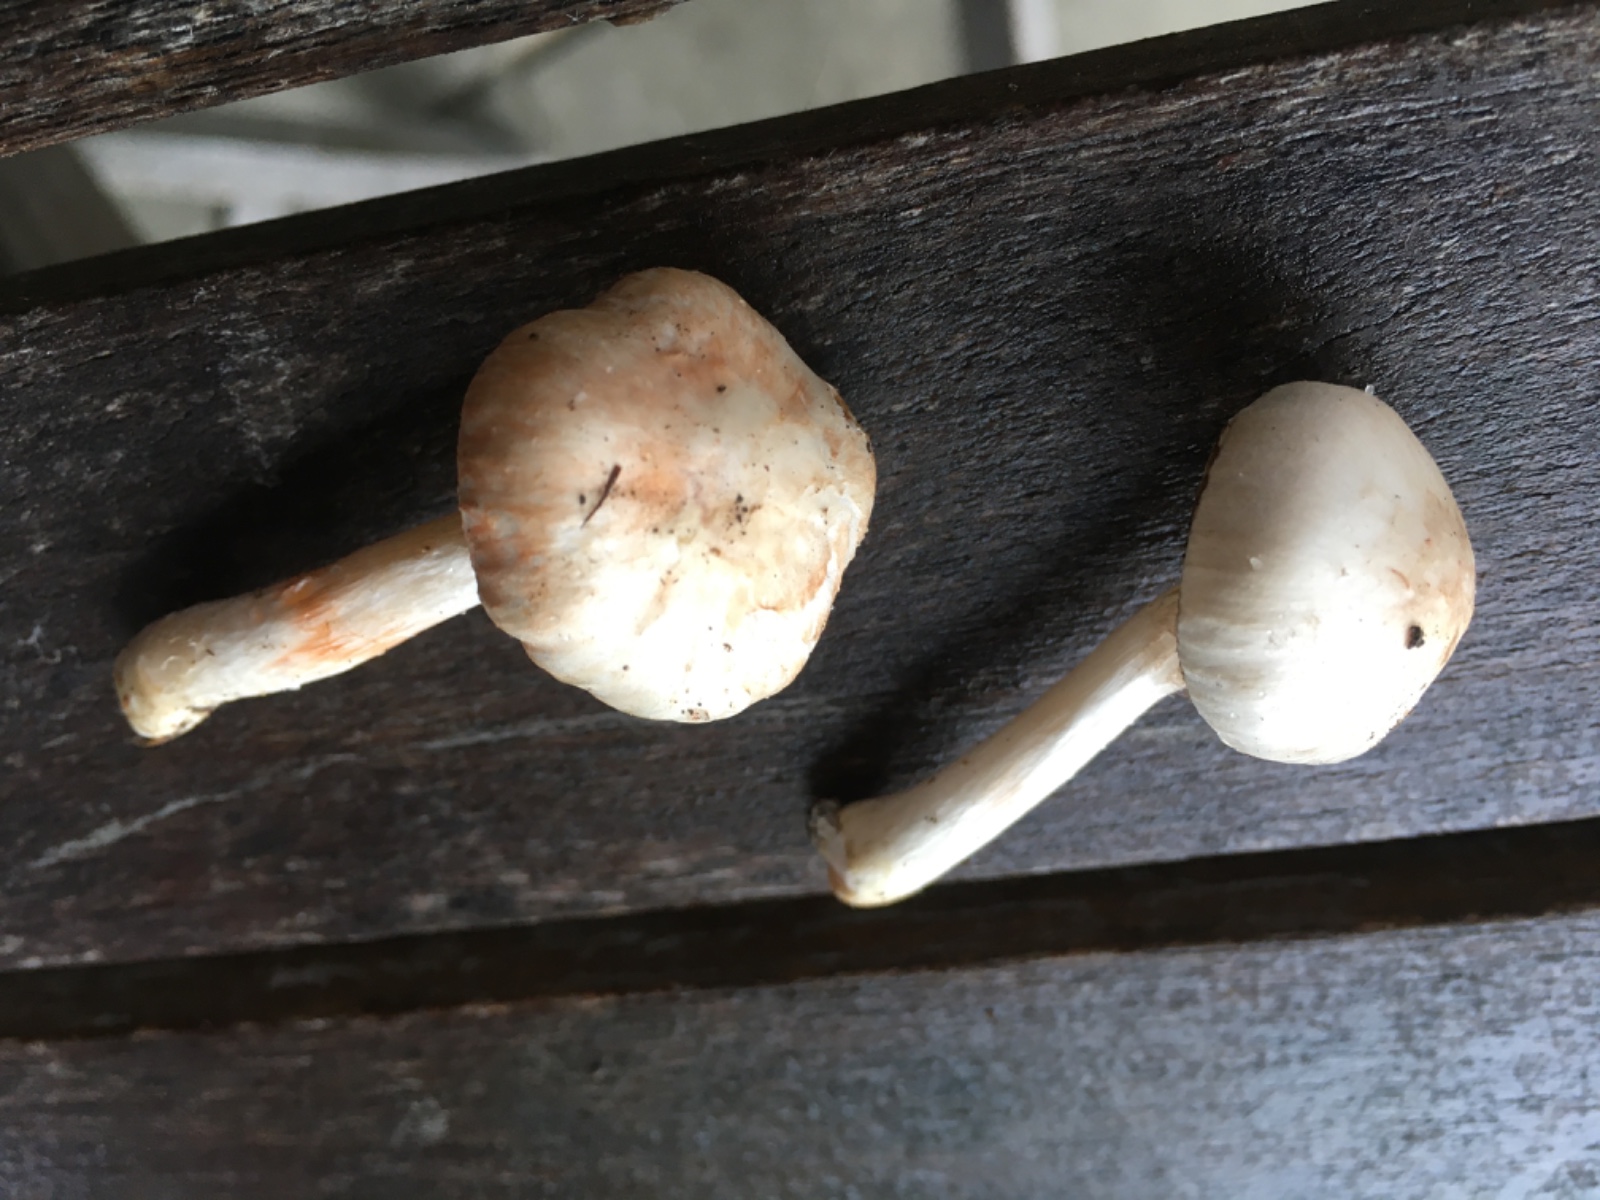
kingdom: Fungi
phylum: Basidiomycota
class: Agaricomycetes
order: Agaricales
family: Inocybaceae
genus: Inocybe
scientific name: Inocybe
